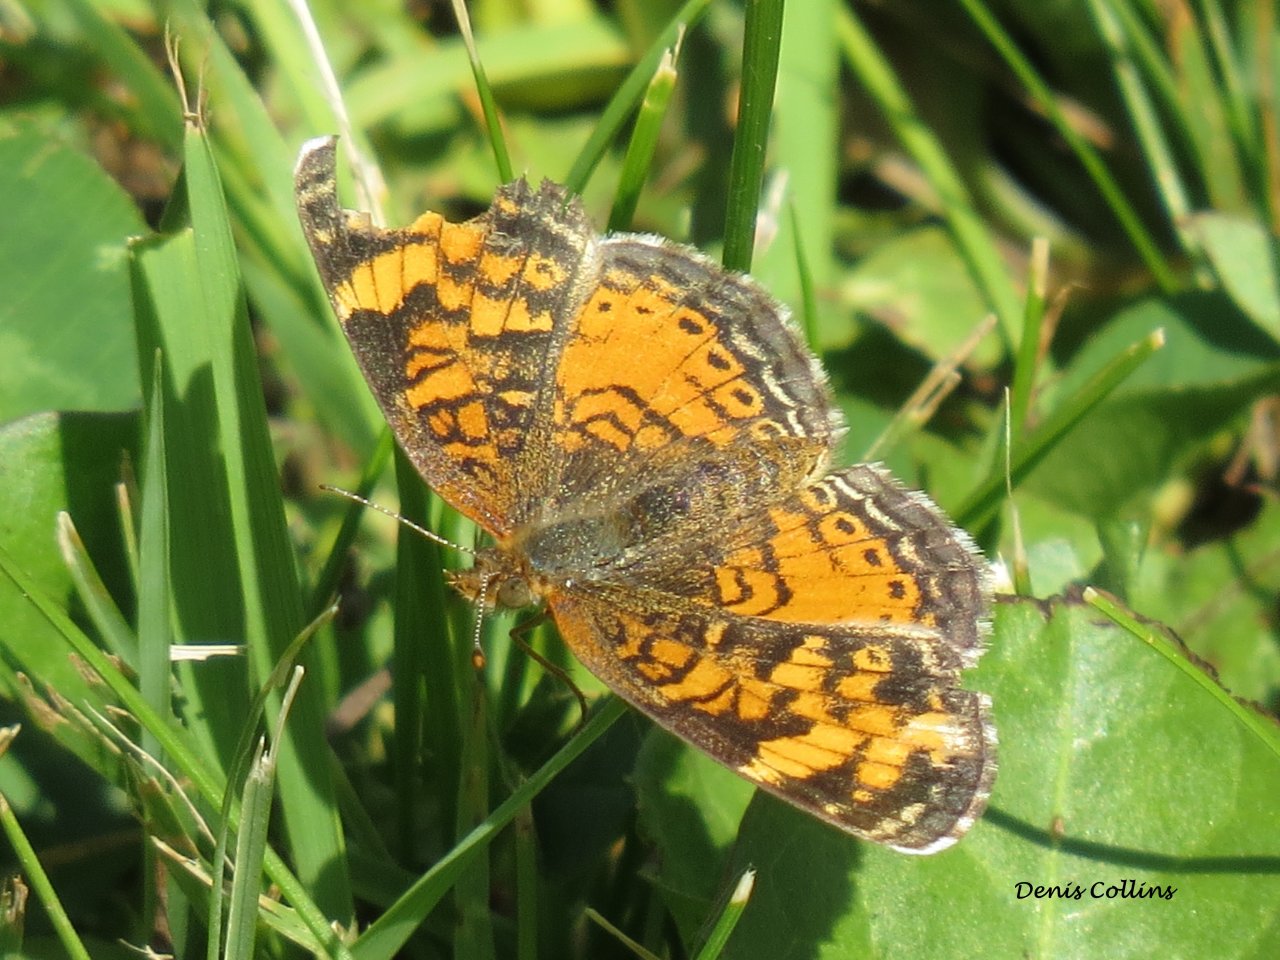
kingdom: Animalia
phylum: Arthropoda
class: Insecta
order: Lepidoptera
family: Nymphalidae
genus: Phyciodes
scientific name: Phyciodes tharos
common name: Northern Crescent
